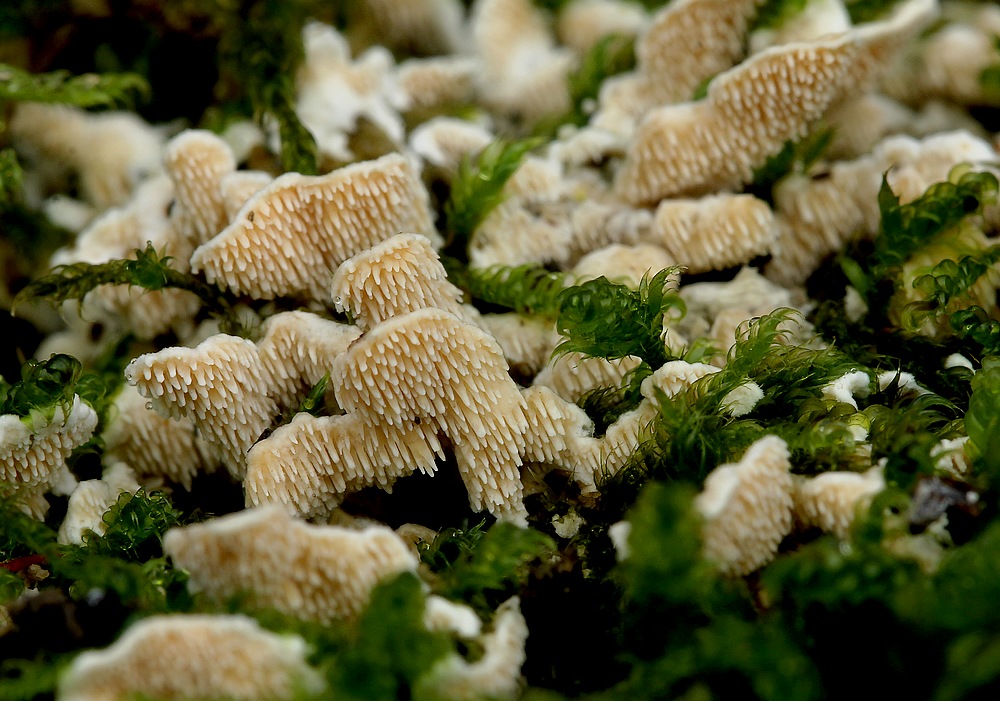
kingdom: Fungi
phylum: Basidiomycota
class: Agaricomycetes
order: Polyporales
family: Steccherinaceae
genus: Steccherinum
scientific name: Steccherinum ochraceum
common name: almindelig skønpig
